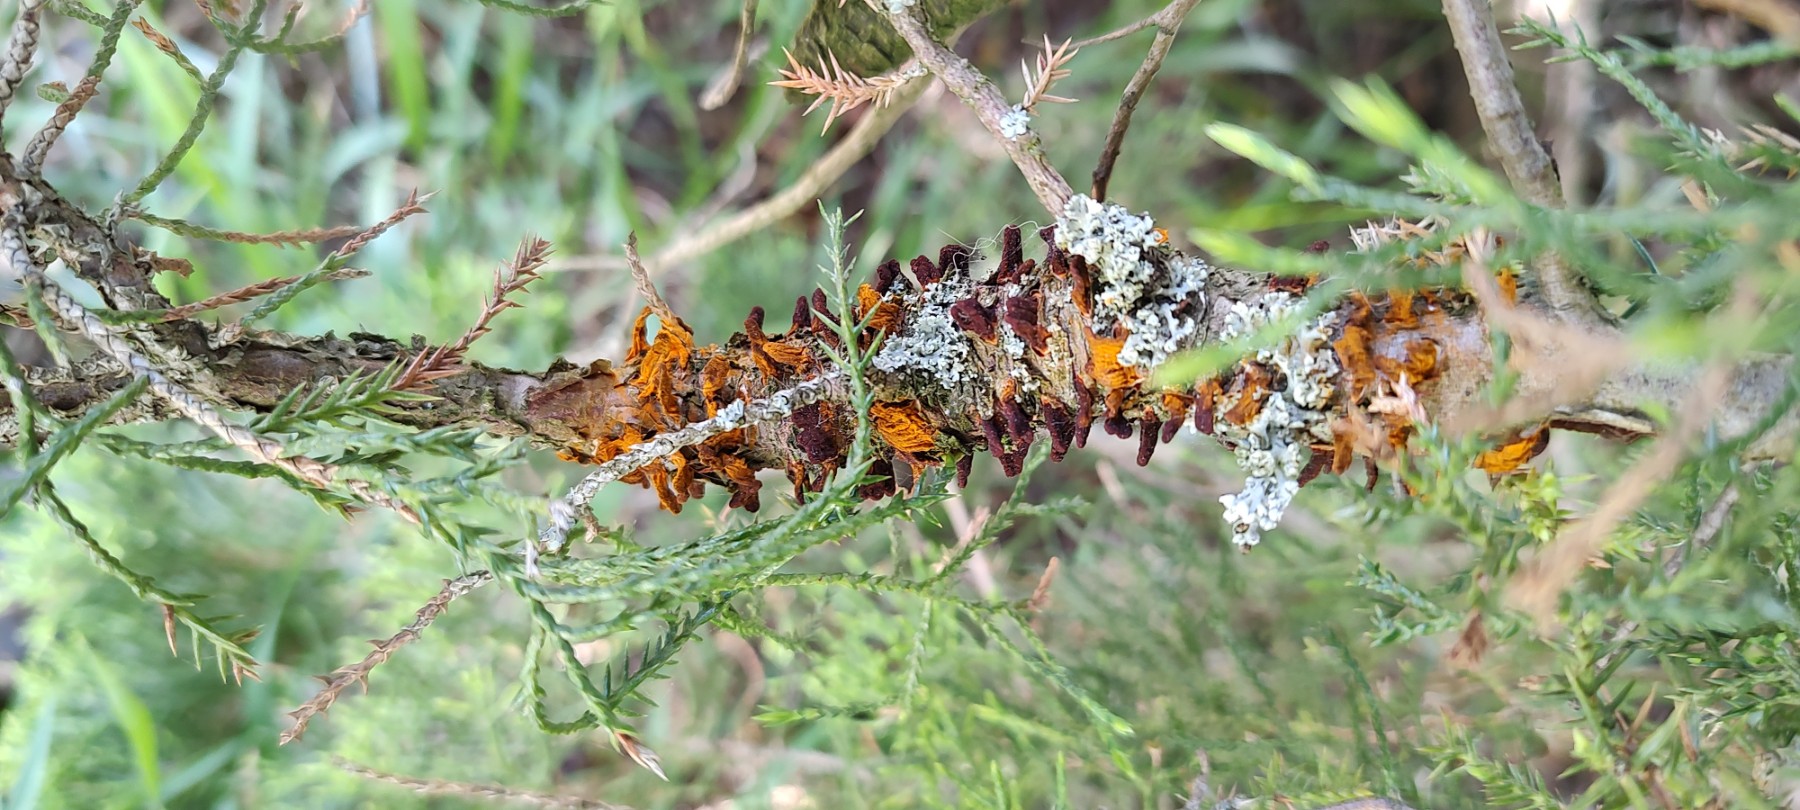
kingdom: Fungi
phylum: Basidiomycota
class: Pucciniomycetes
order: Pucciniales
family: Gymnosporangiaceae
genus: Gymnosporangium
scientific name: Gymnosporangium
